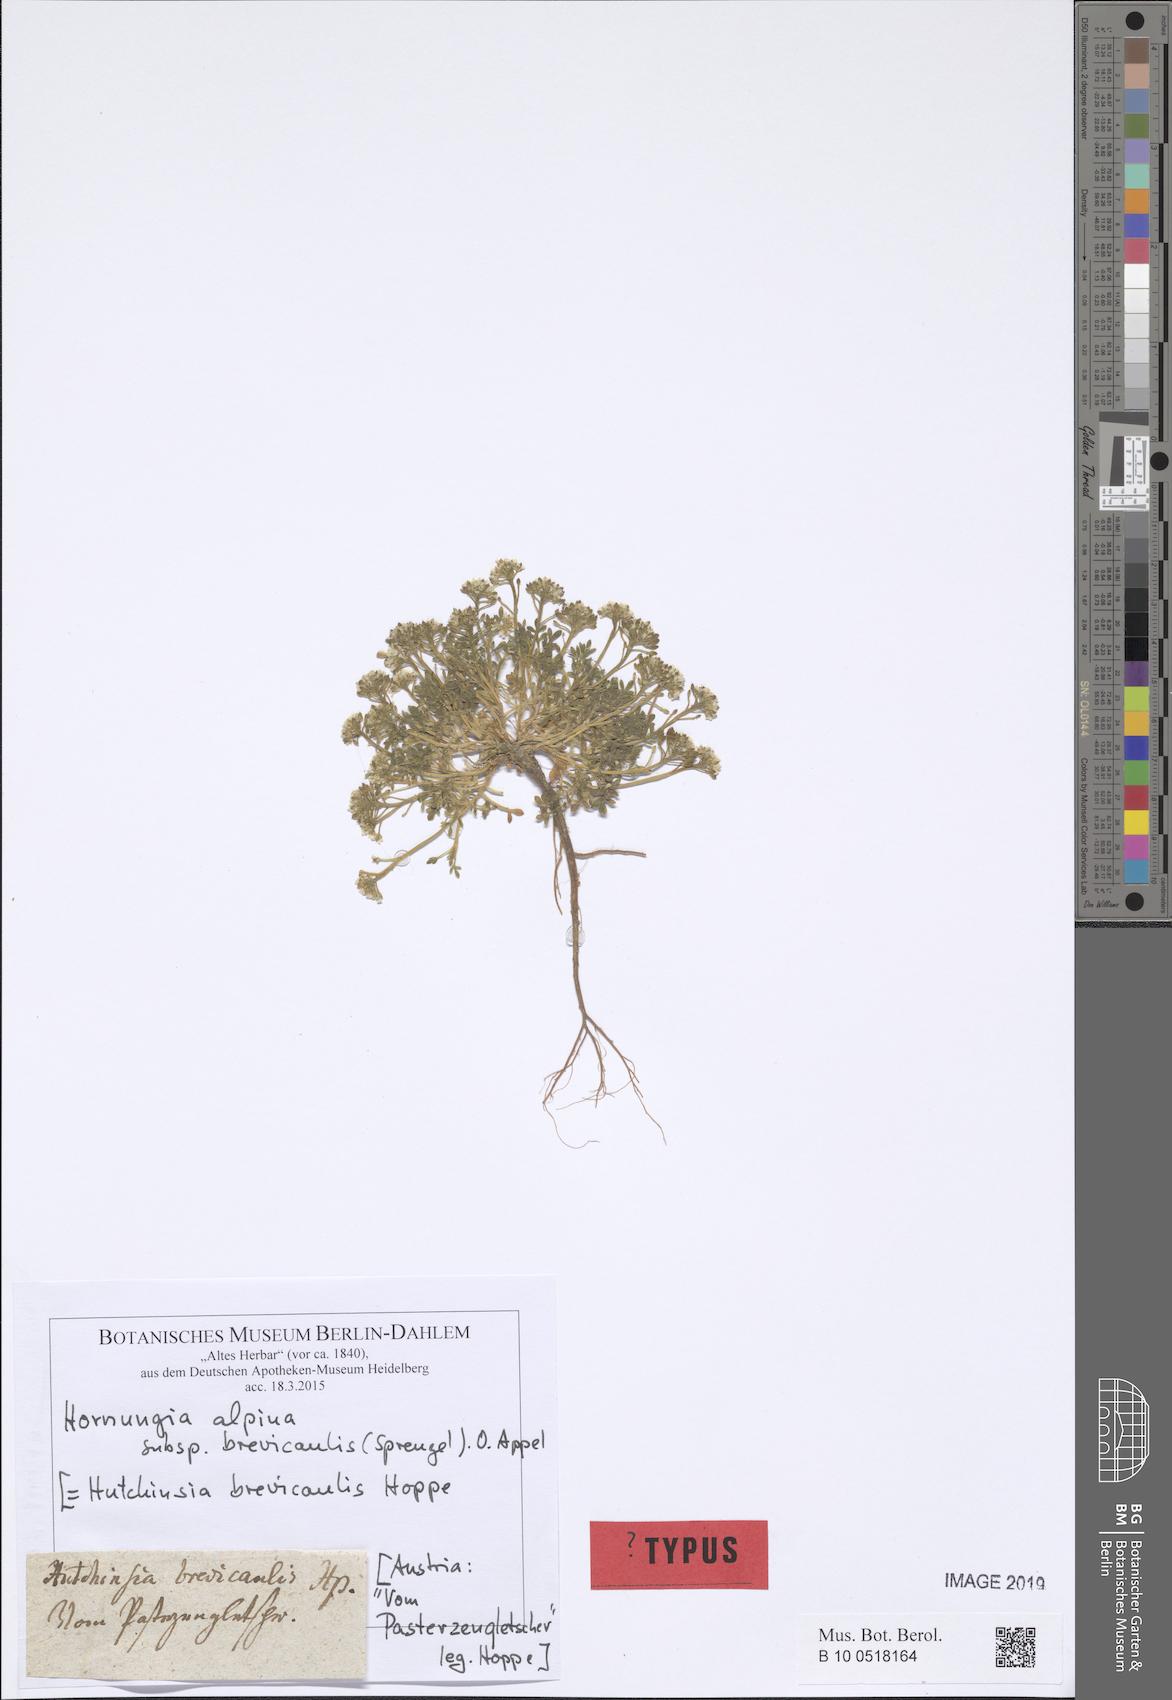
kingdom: Plantae
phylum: Tracheophyta
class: Magnoliopsida
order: Brassicales
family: Brassicaceae
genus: Hornungia
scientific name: Hornungia alpina
